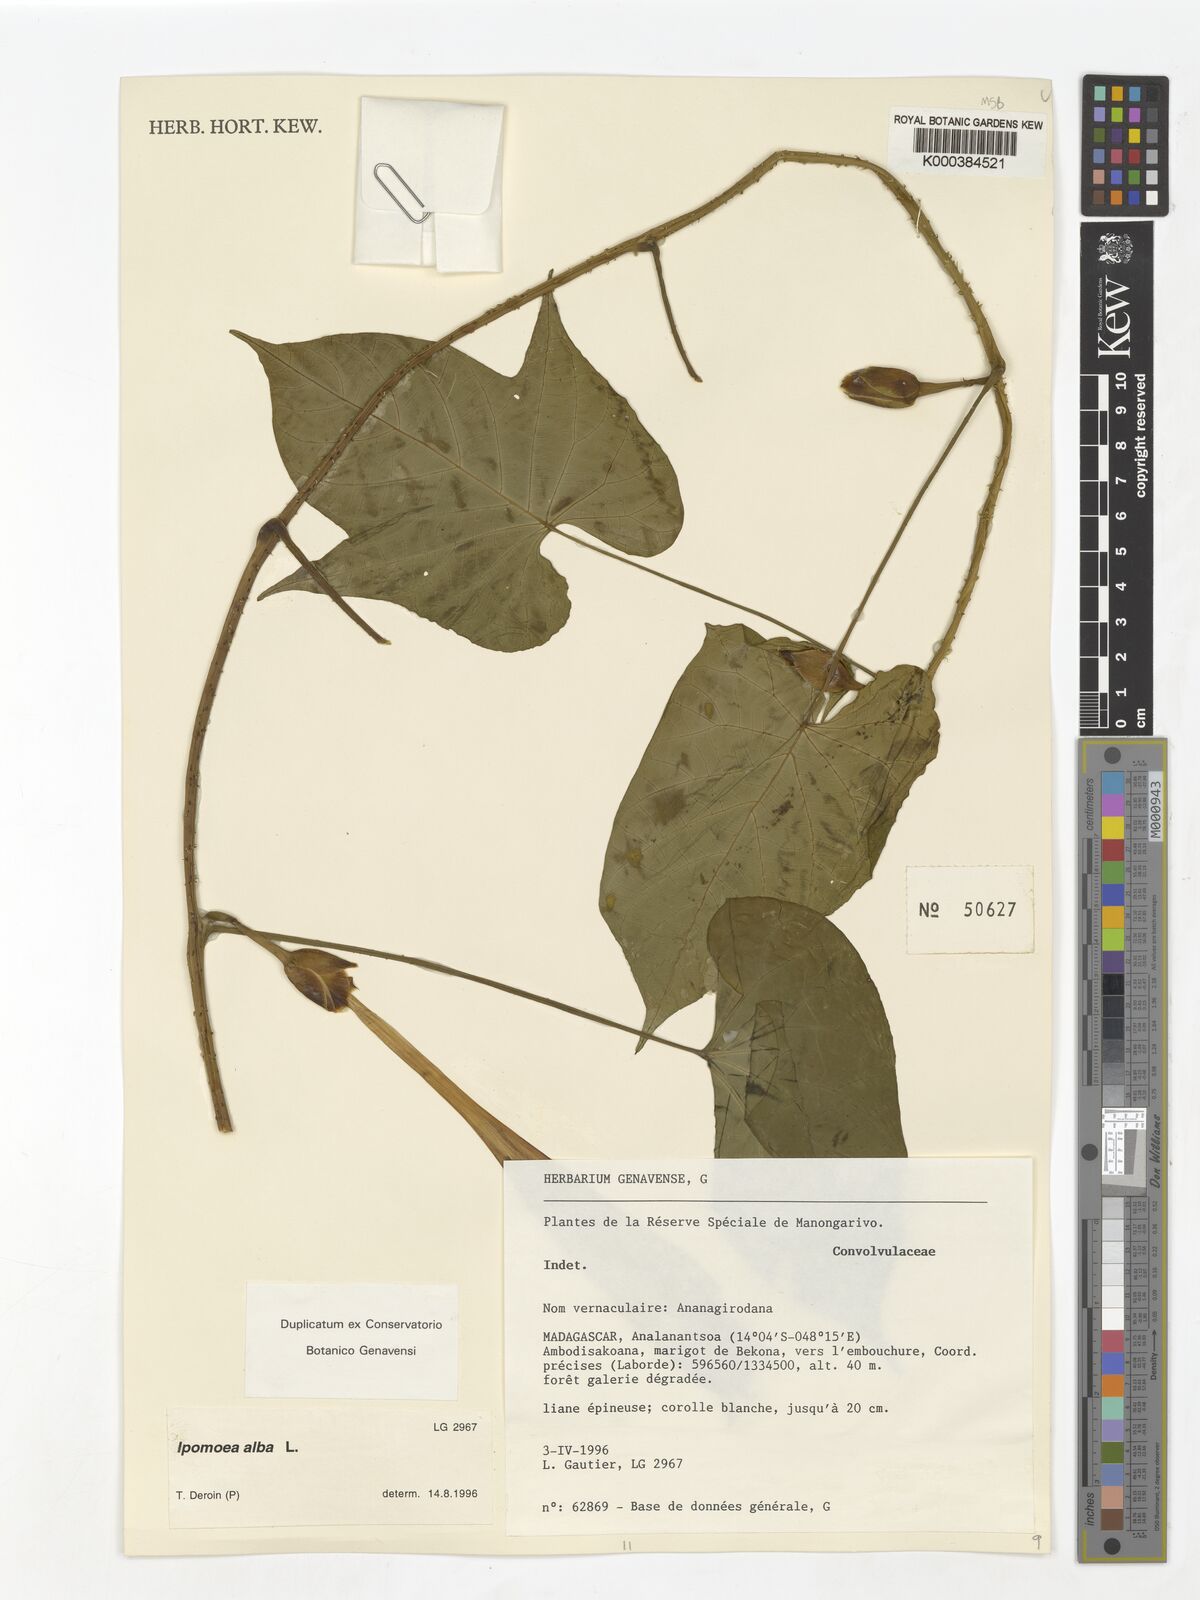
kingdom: Plantae
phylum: Tracheophyta
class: Magnoliopsida
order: Solanales
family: Convolvulaceae
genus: Ipomoea
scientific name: Ipomoea alba
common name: Moonflower
